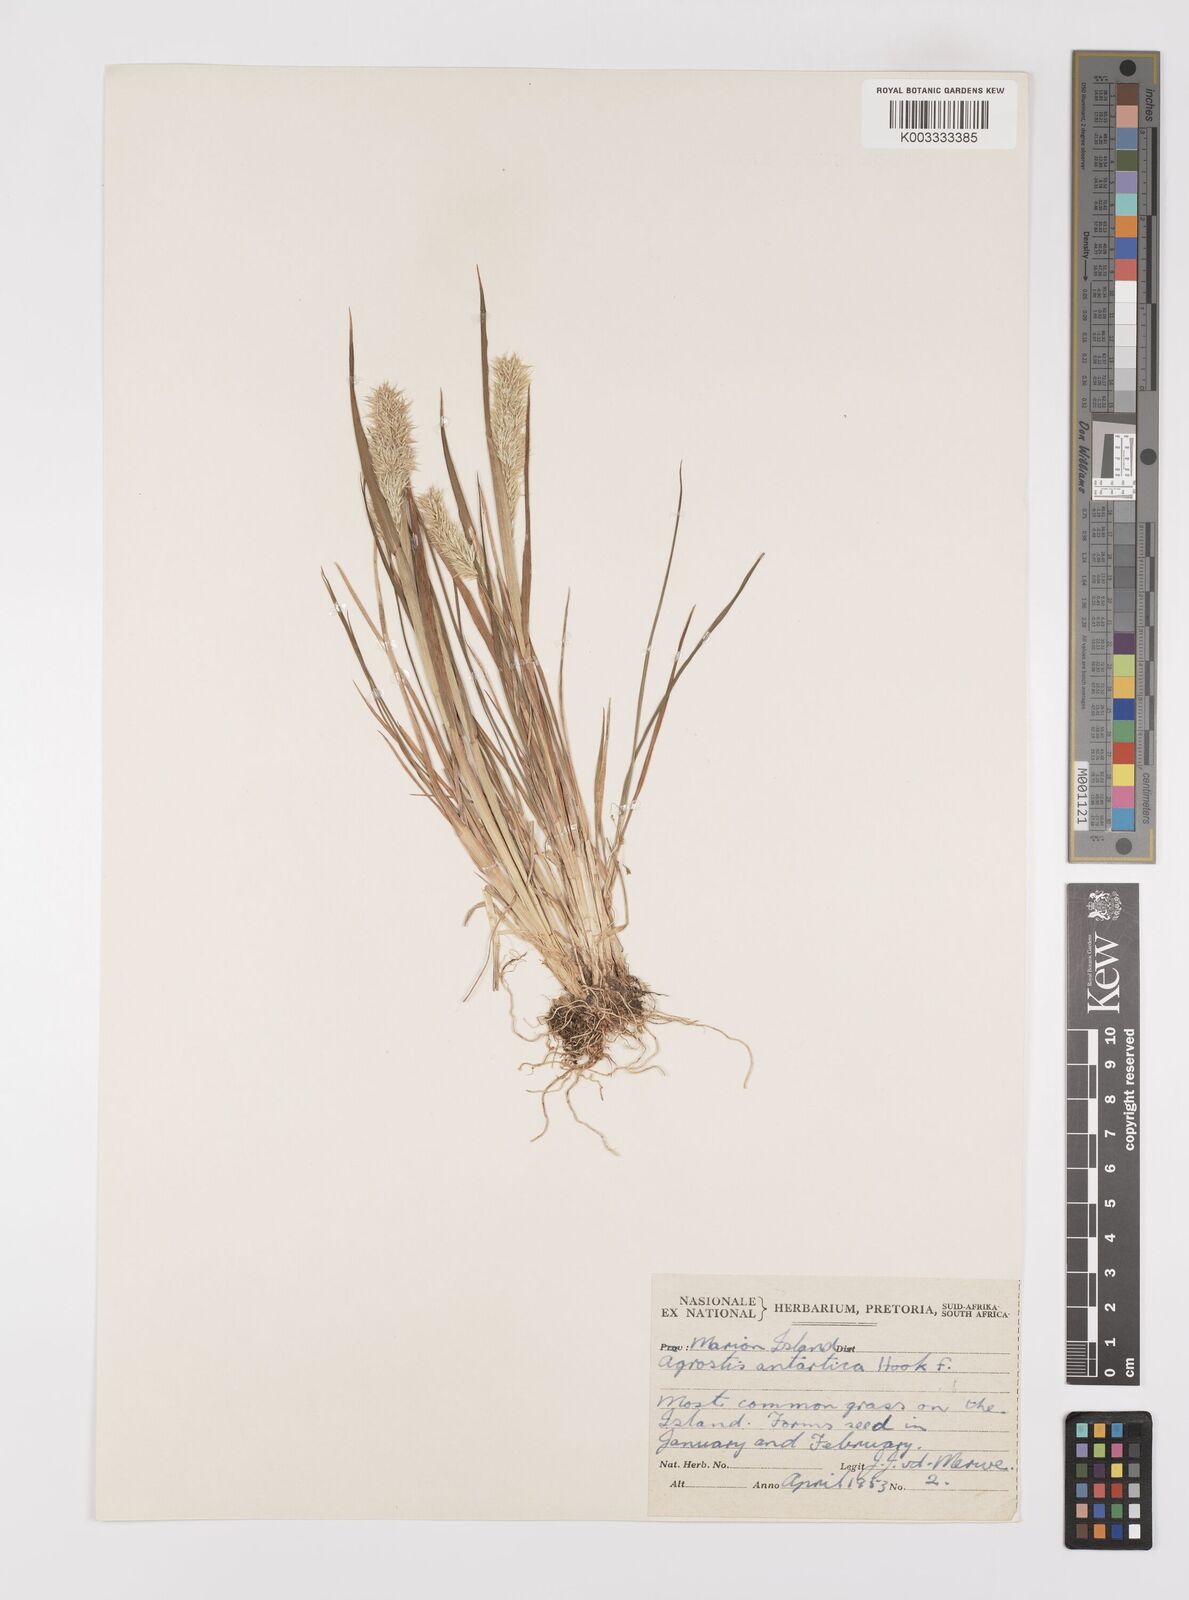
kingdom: Plantae
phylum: Tracheophyta
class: Liliopsida
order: Poales
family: Poaceae
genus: Polypogon
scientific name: Polypogon magellanicus
